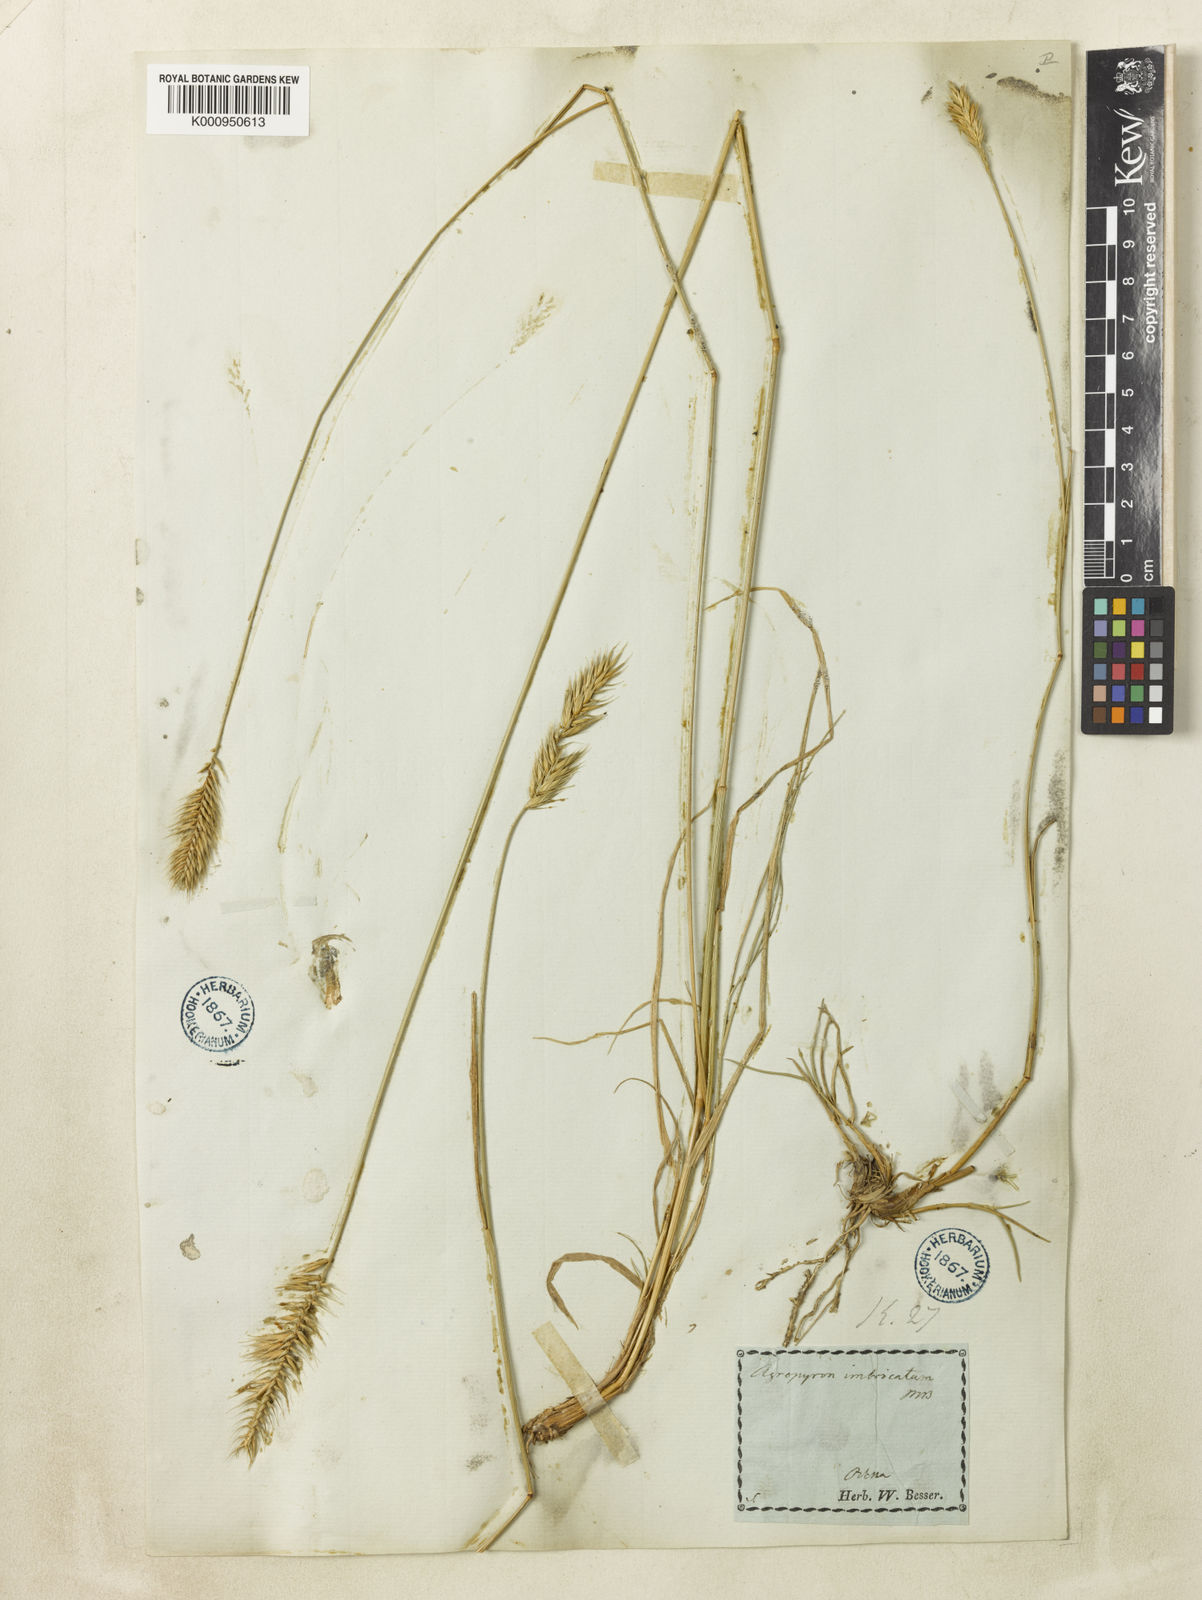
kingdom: Plantae
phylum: Tracheophyta
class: Liliopsida
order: Poales
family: Poaceae
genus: Agropyron
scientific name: Agropyron cristatum
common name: Crested wheatgrass
